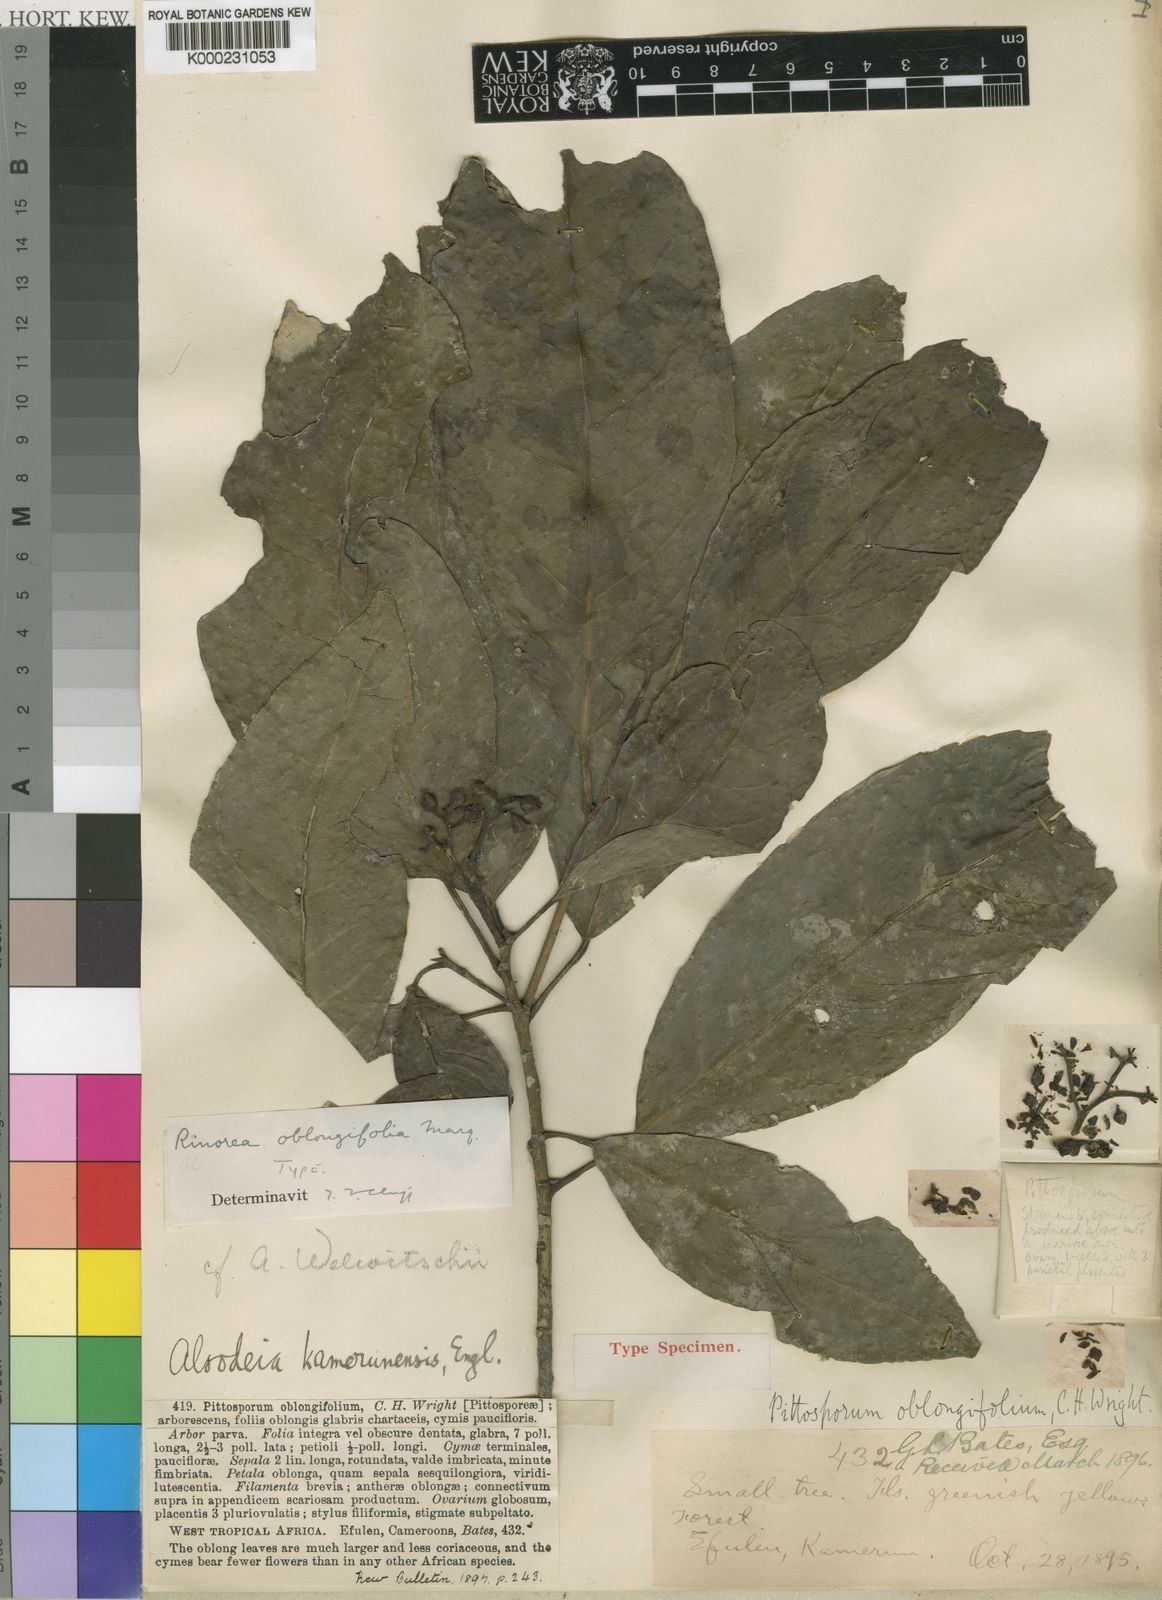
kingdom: Plantae
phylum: Tracheophyta
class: Magnoliopsida
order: Malpighiales
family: Violaceae
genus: Rinorea
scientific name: Rinorea
